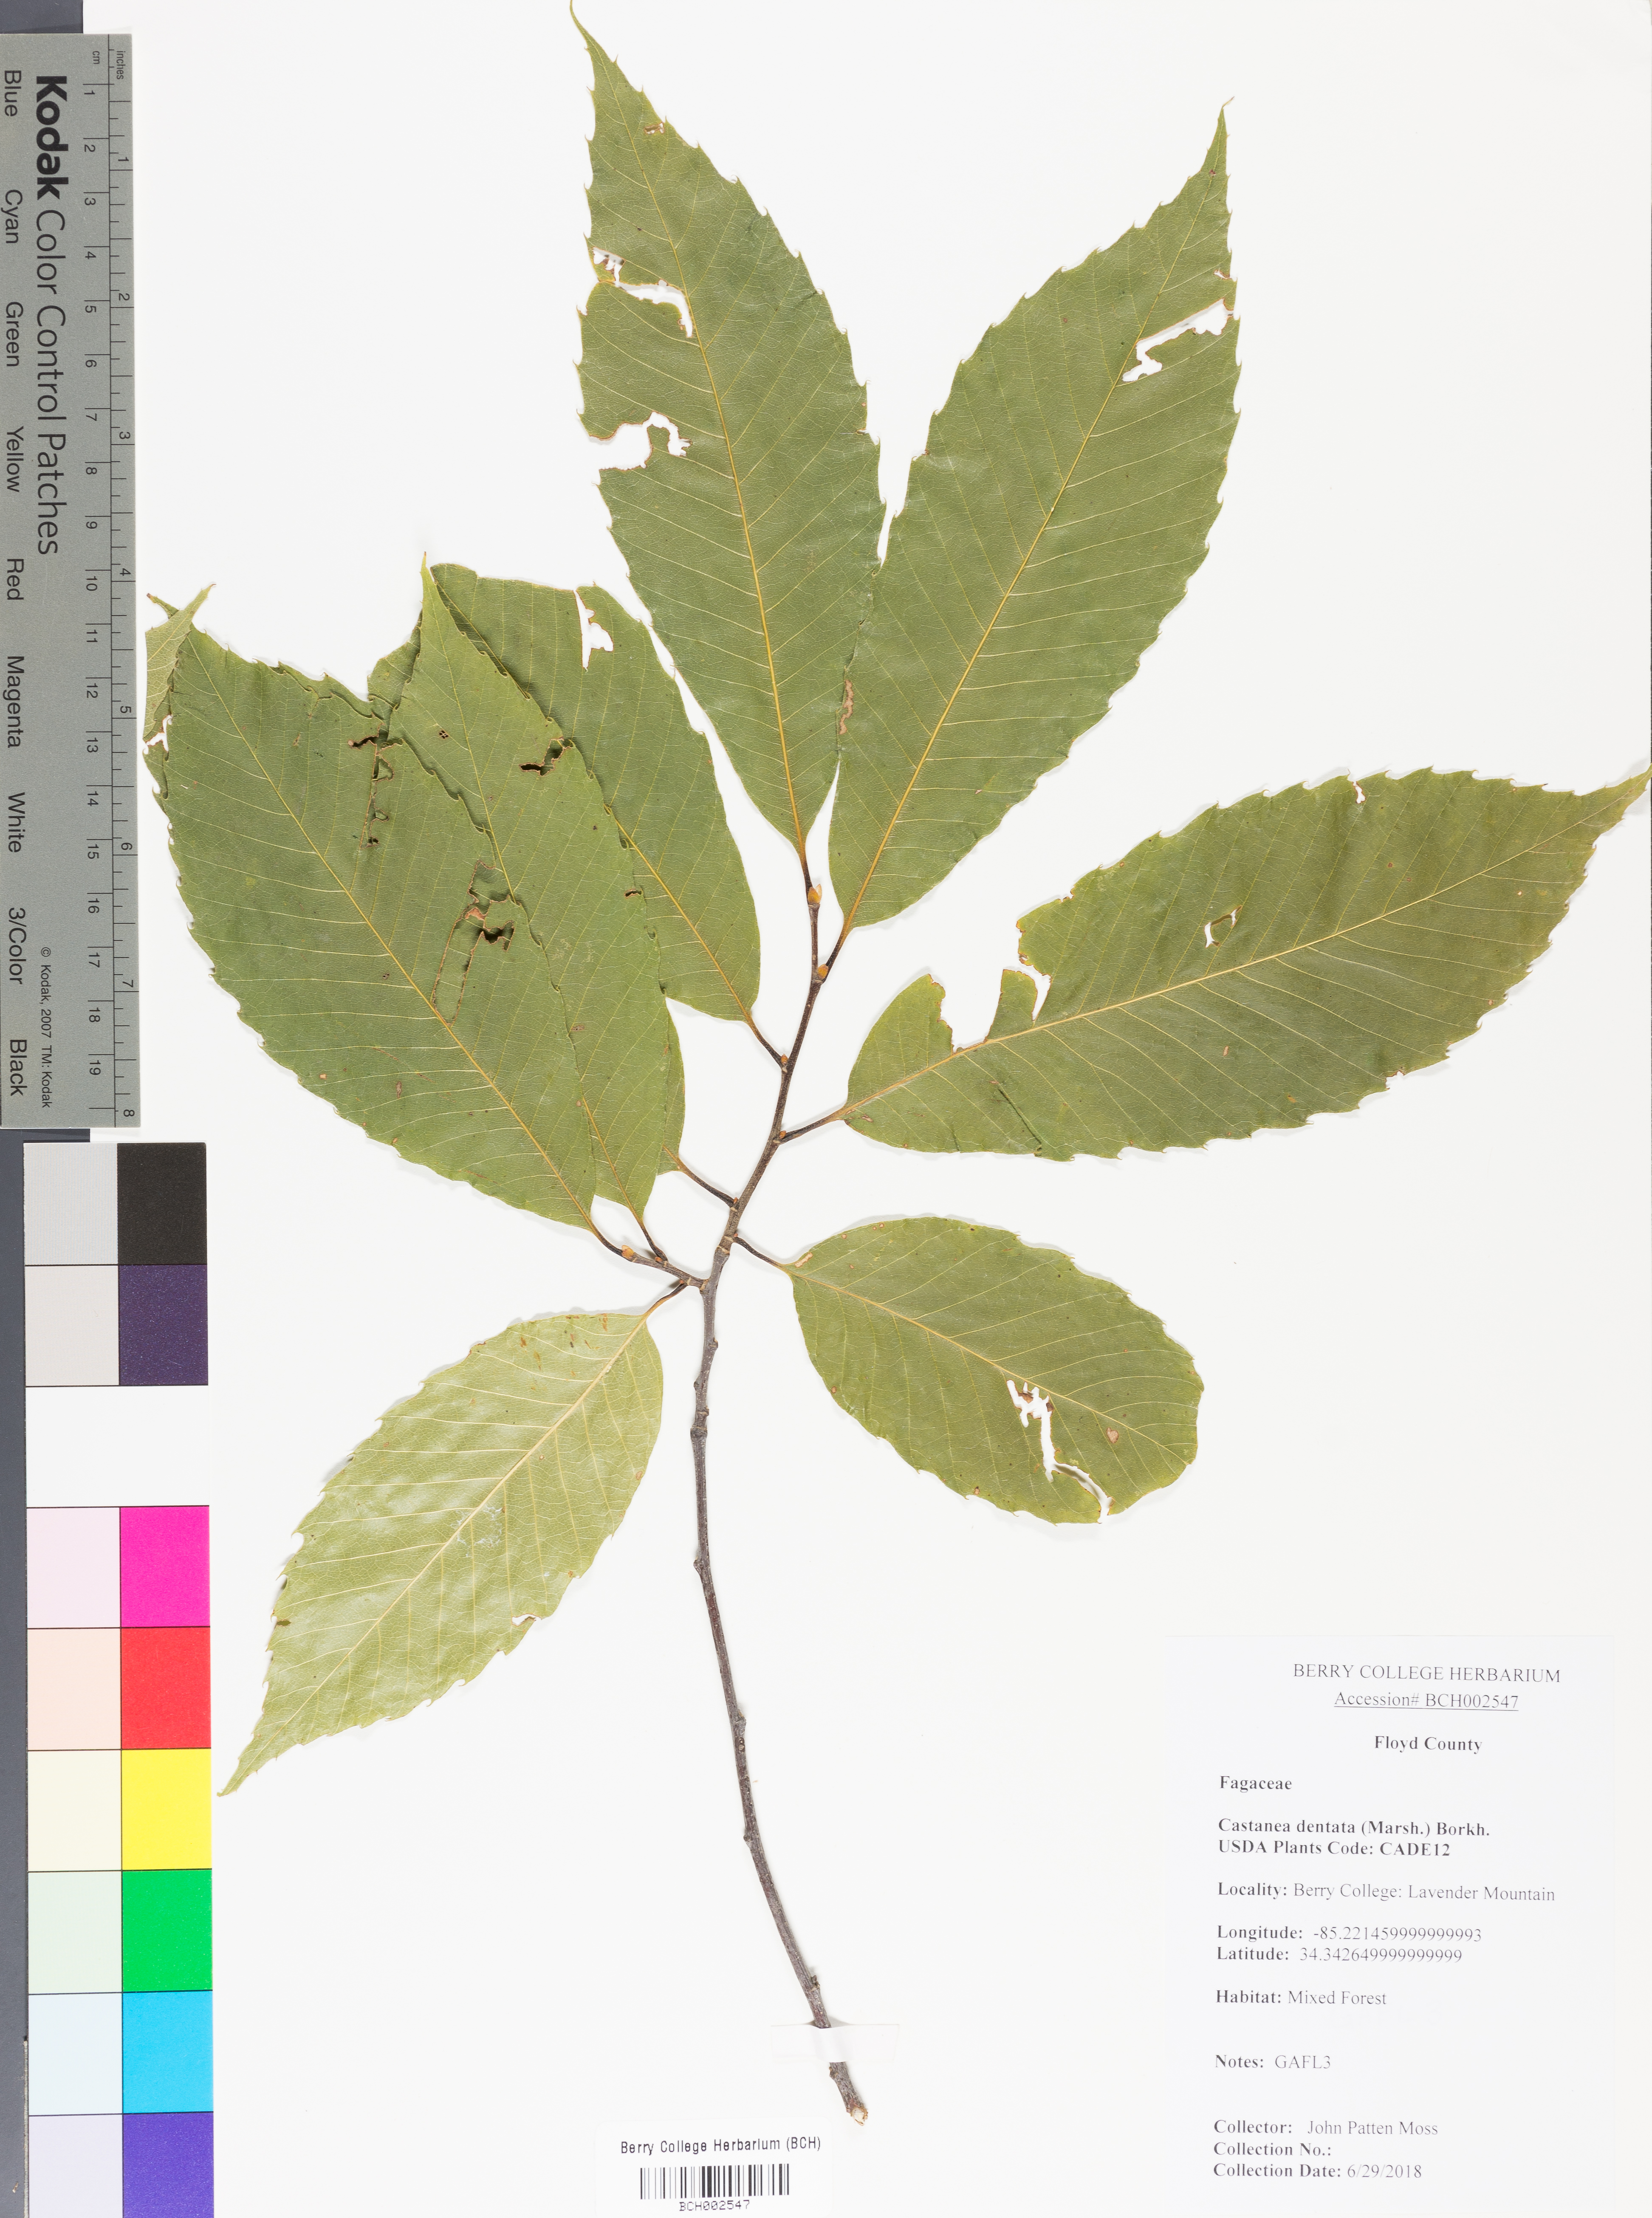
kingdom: Plantae
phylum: Tracheophyta
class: Magnoliopsida
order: Fagales
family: Fagaceae
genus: Castanea
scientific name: Castanea dentata
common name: American chestnut
